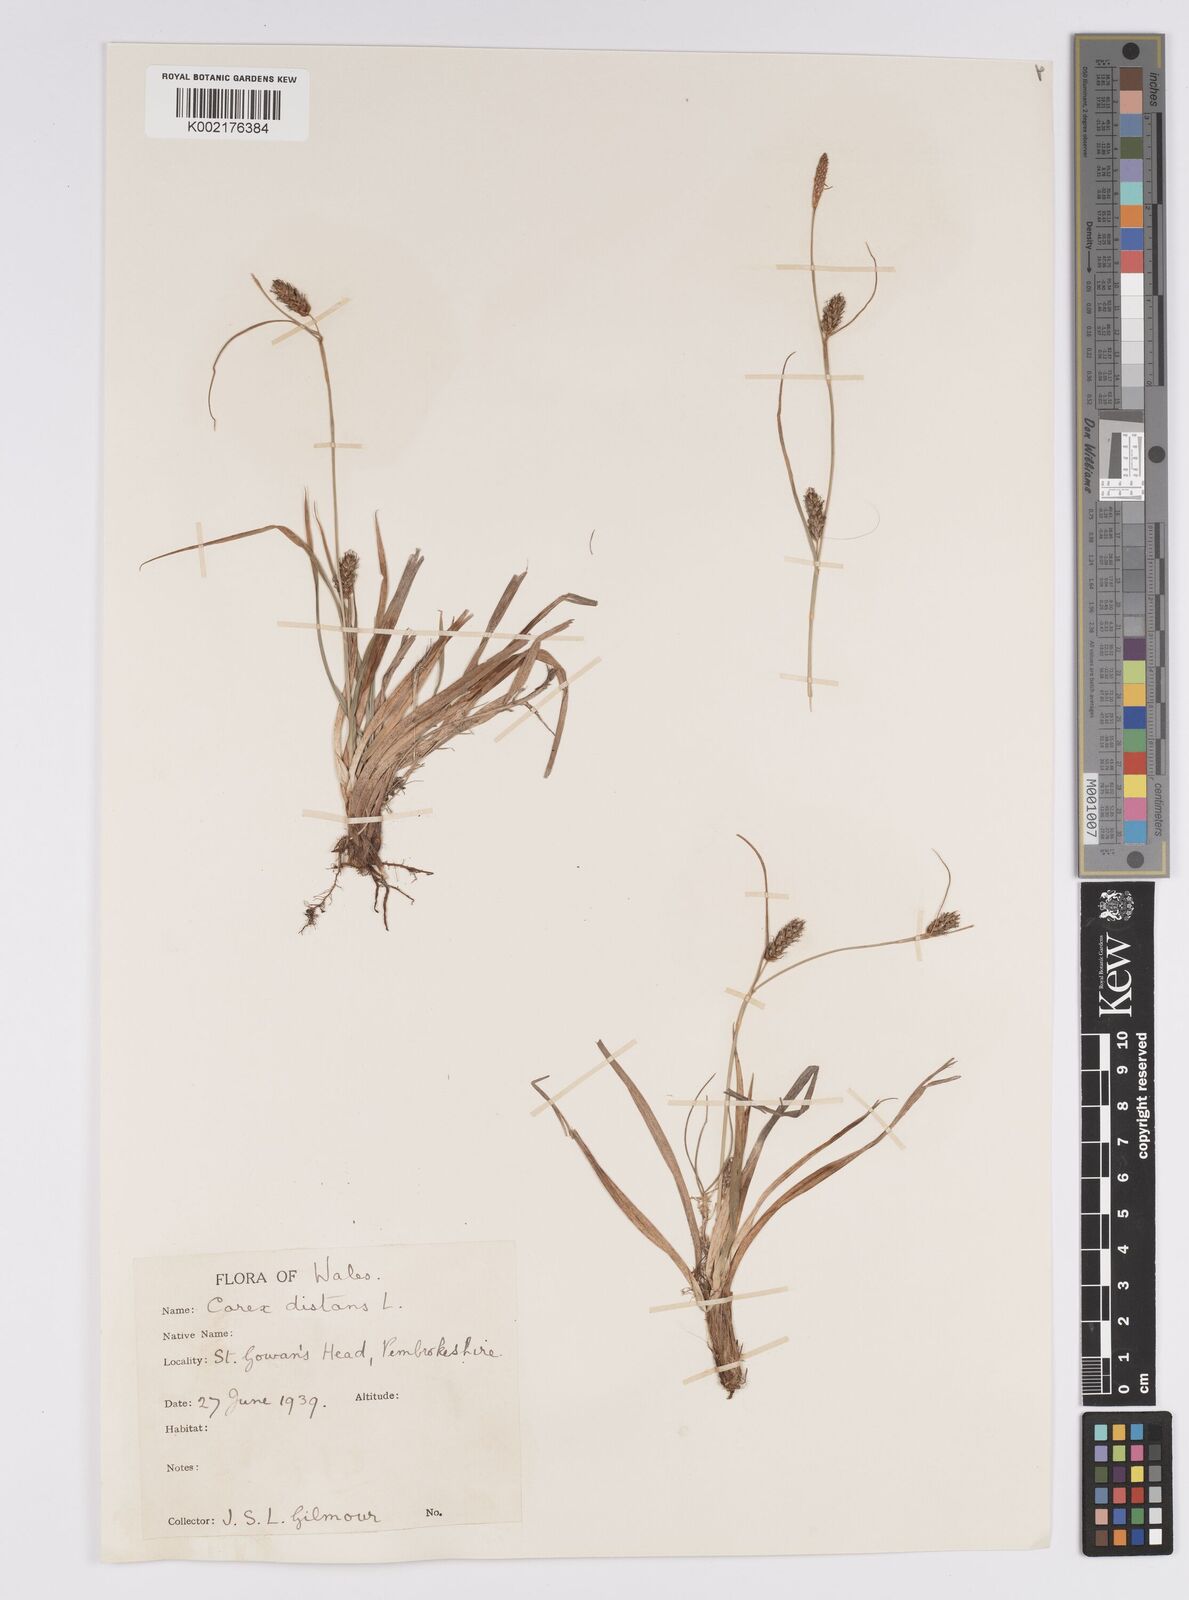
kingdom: Plantae
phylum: Tracheophyta
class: Liliopsida
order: Poales
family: Cyperaceae
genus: Carex
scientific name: Carex distans
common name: Distant sedge
